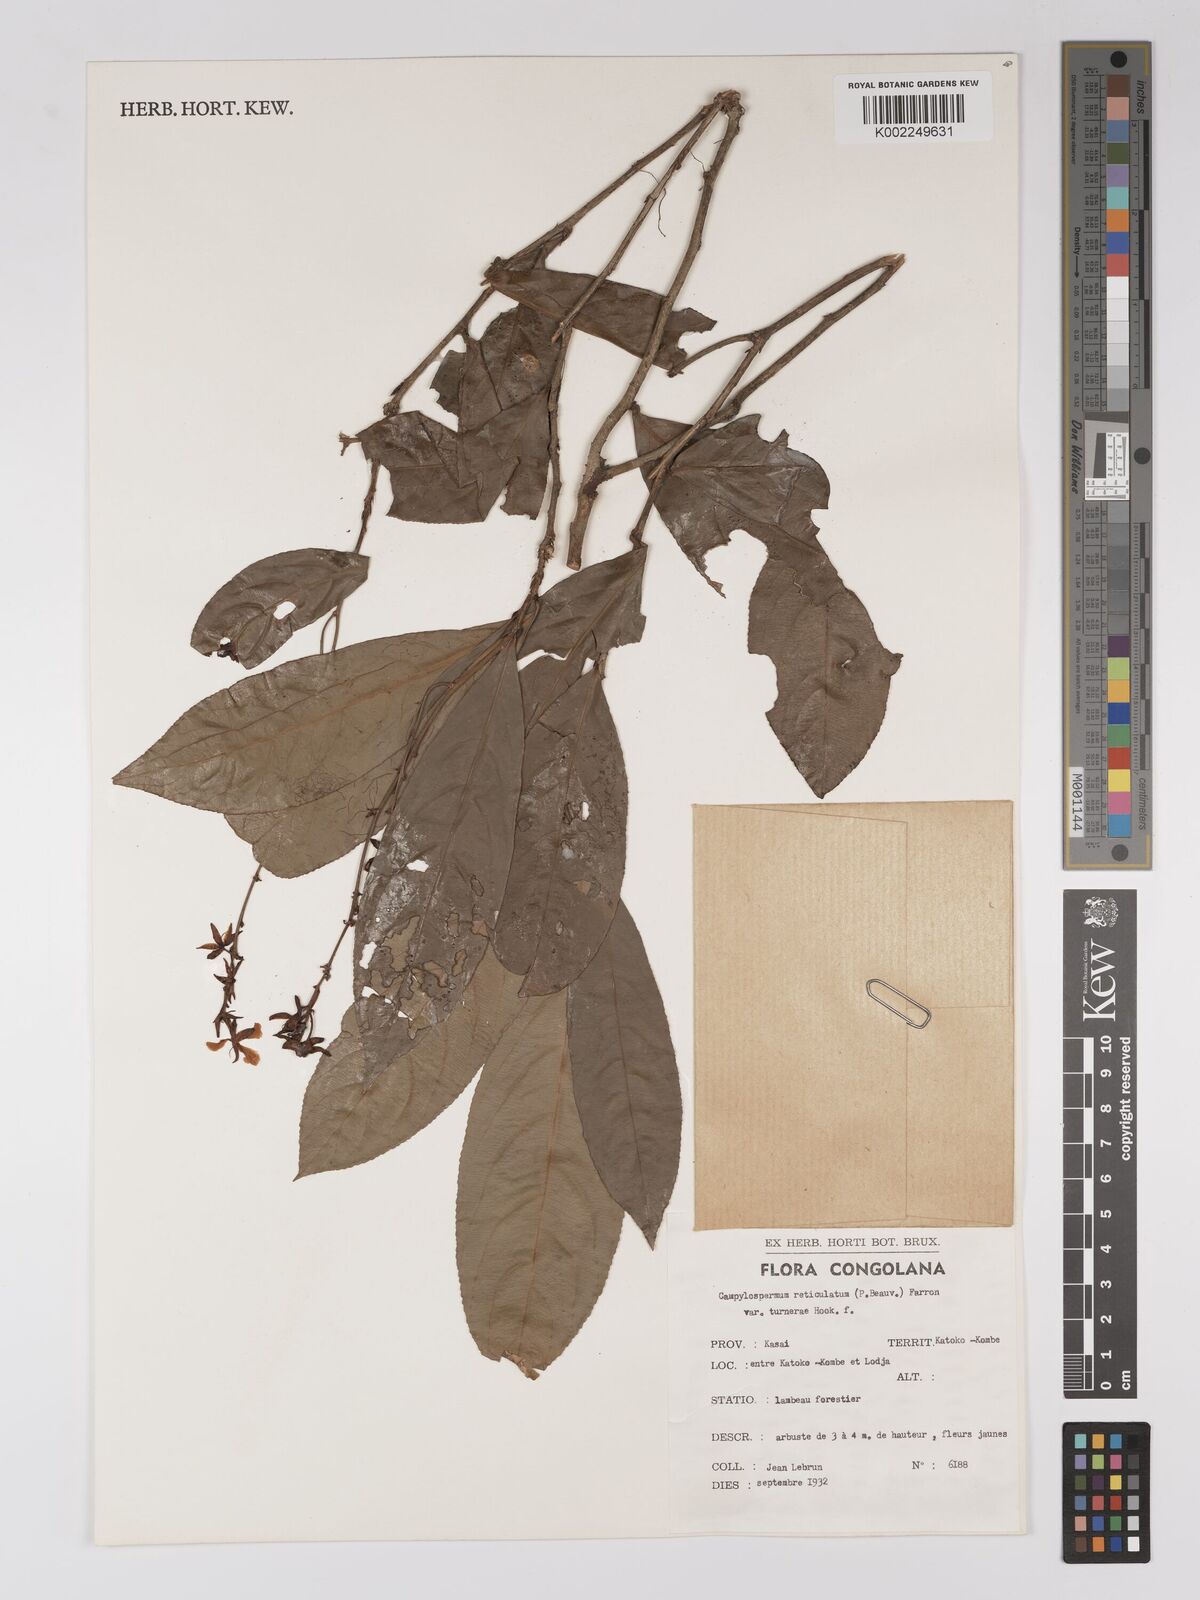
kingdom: Plantae
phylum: Tracheophyta
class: Magnoliopsida
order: Malpighiales
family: Ochnaceae
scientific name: Ochnaceae
